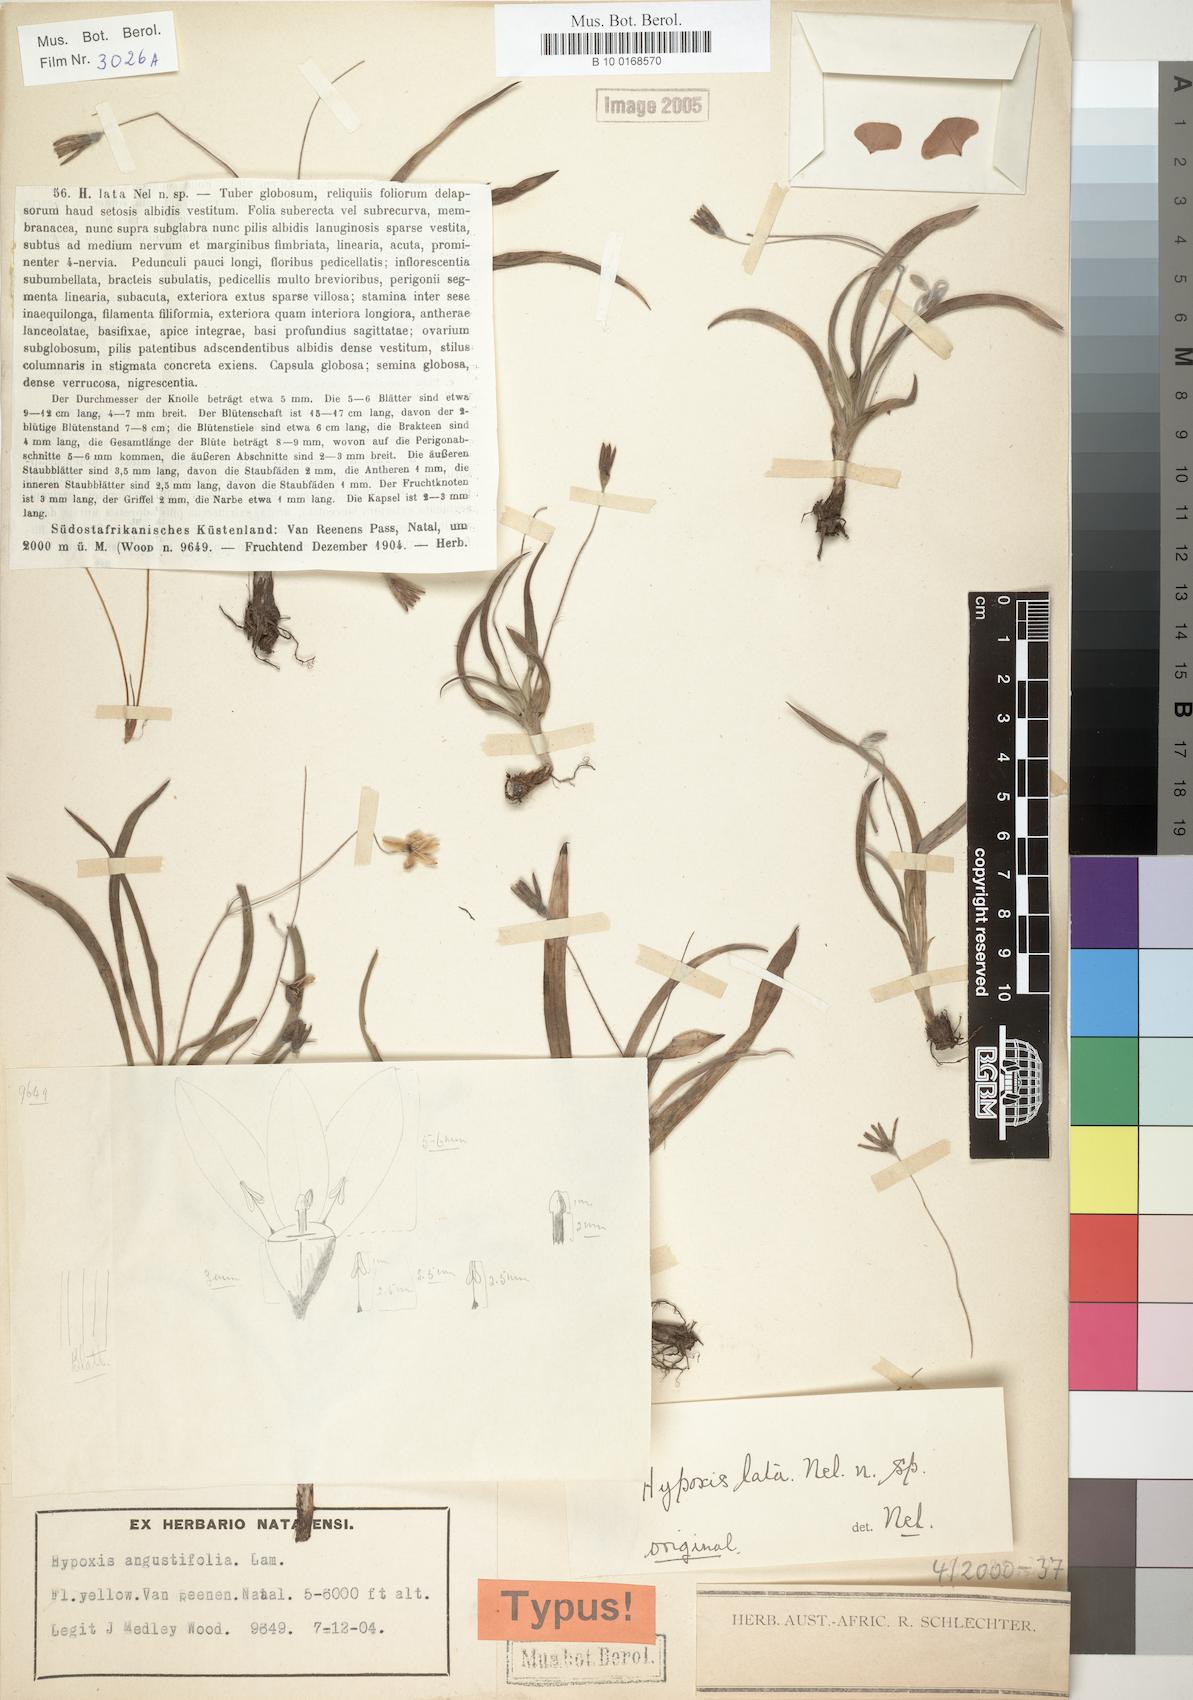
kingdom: Plantae
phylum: Tracheophyta
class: Liliopsida
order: Asparagales
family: Hypoxidaceae
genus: Hypoxis
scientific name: Hypoxis lata
